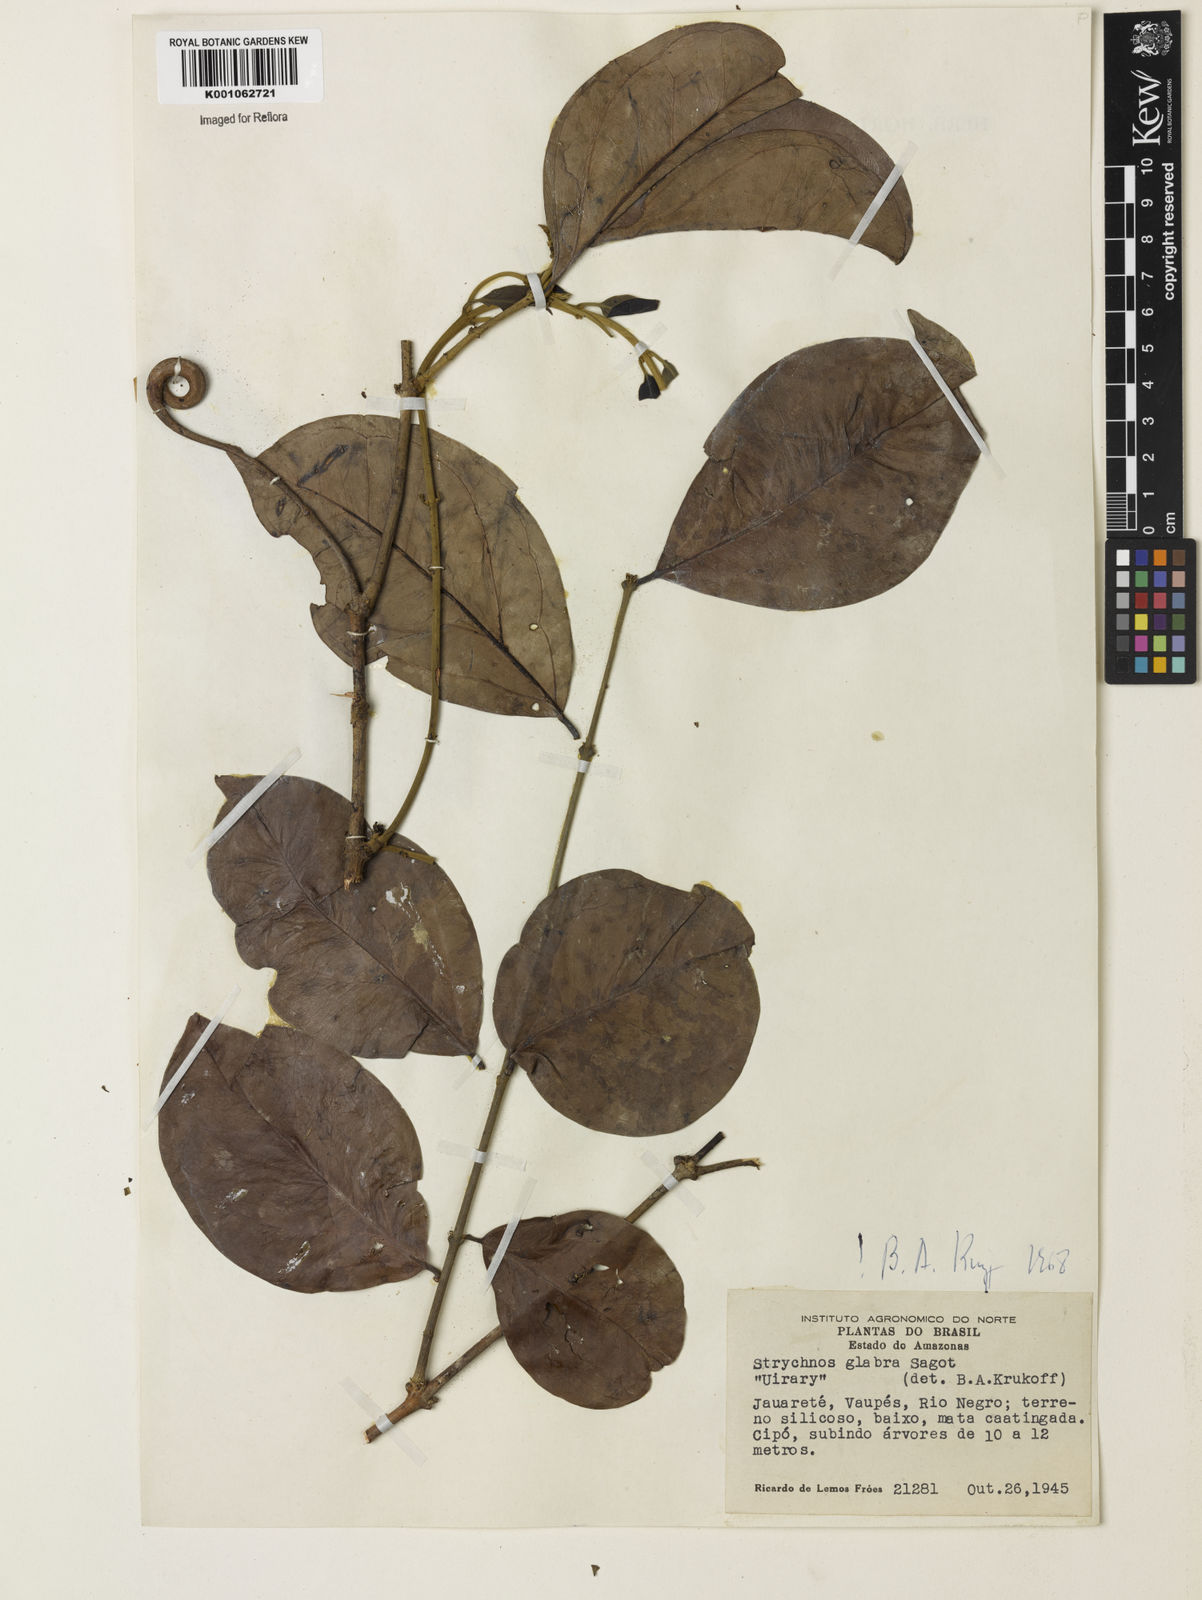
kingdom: Plantae
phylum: Tracheophyta
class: Magnoliopsida
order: Gentianales
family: Loganiaceae
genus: Strychnos
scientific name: Strychnos glabra
